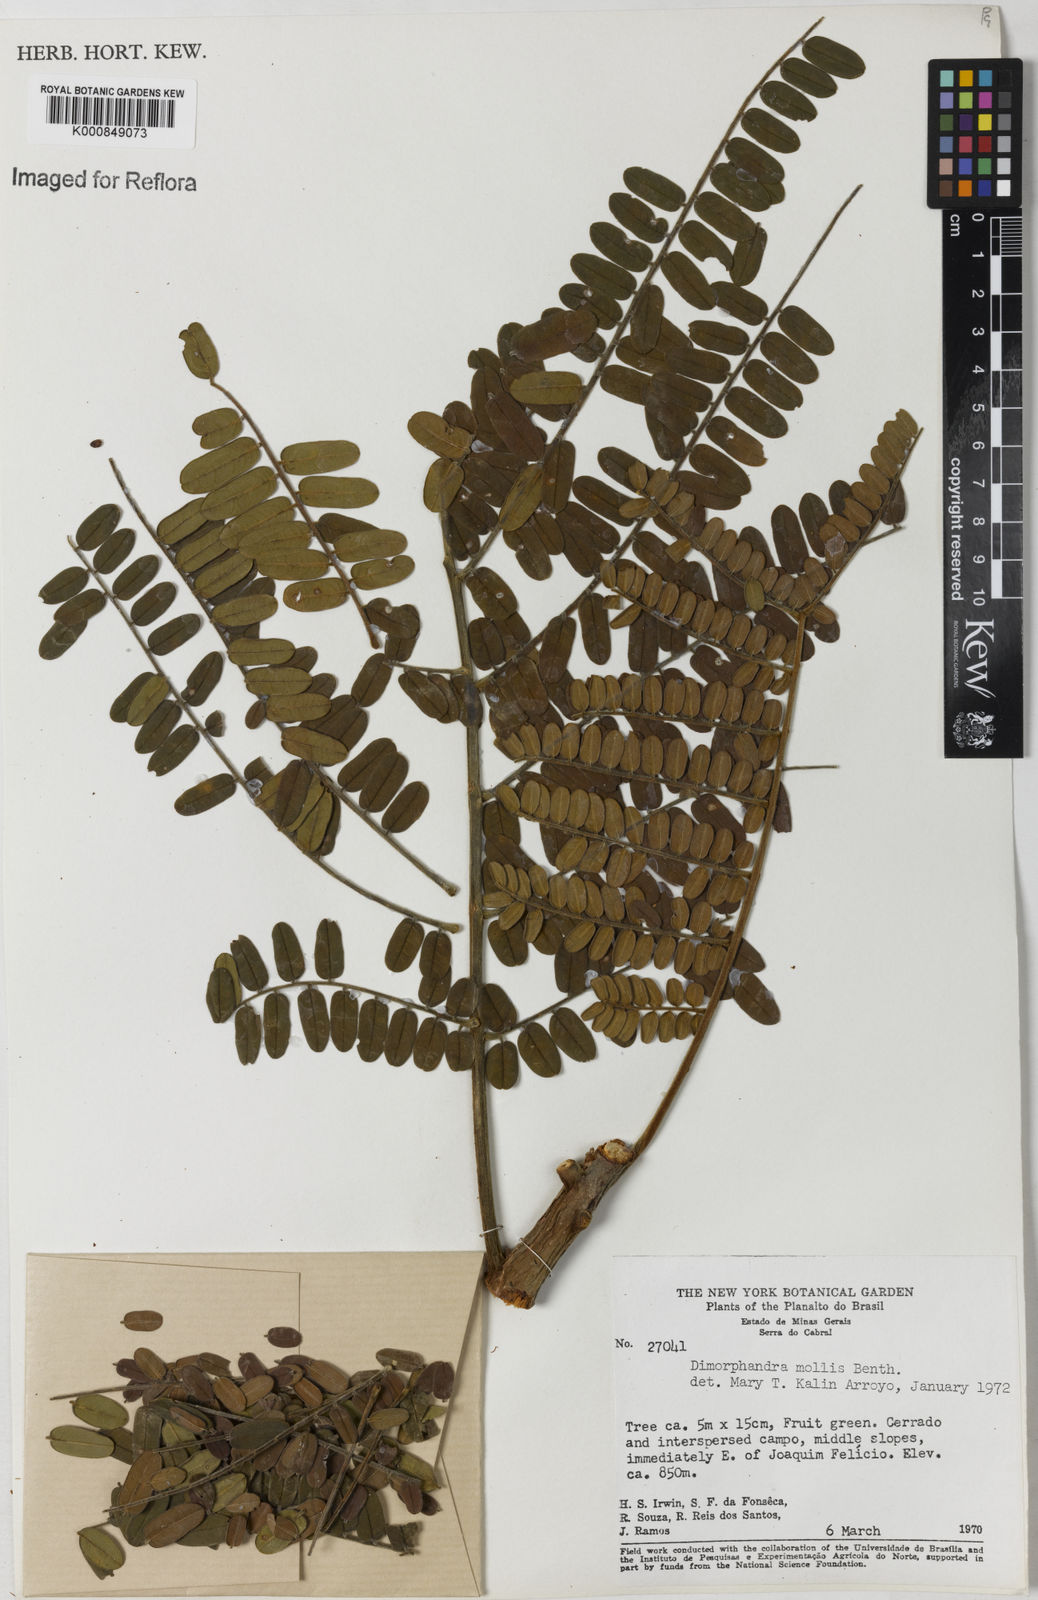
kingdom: Plantae
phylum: Tracheophyta
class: Magnoliopsida
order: Fabales
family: Fabaceae
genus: Dimorphandra
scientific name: Dimorphandra mollis
